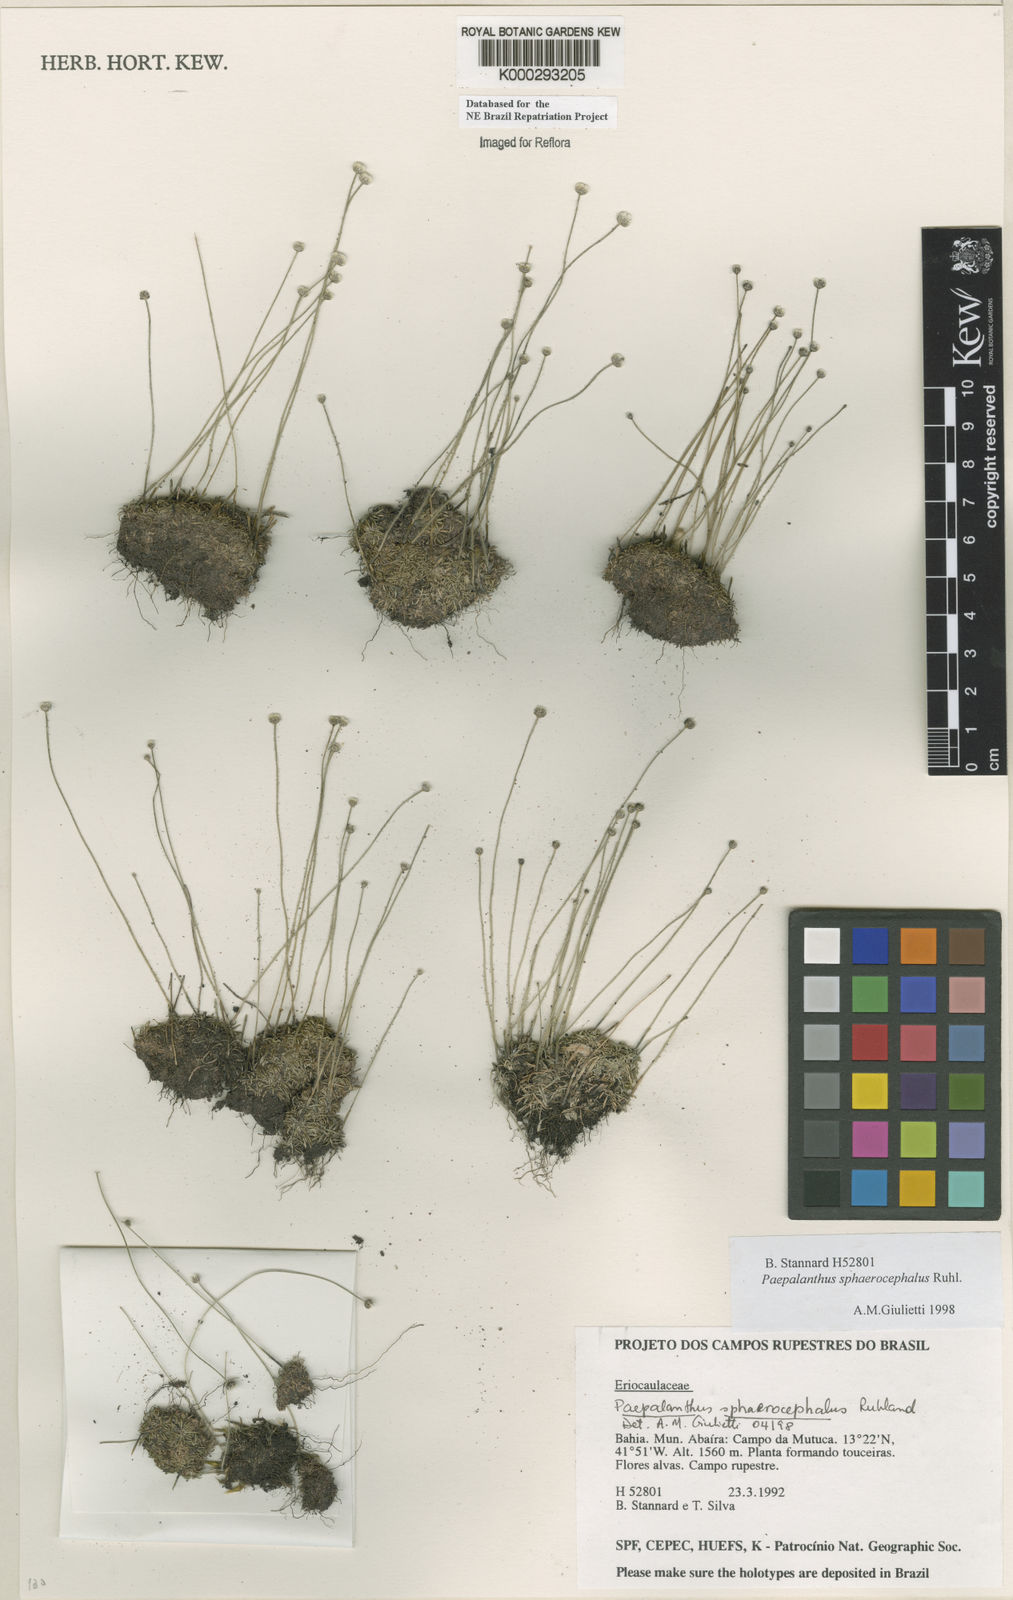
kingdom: Plantae
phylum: Tracheophyta
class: Liliopsida
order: Poales
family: Eriocaulaceae
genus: Paepalanthus
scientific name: Paepalanthus sphaerocephalus
